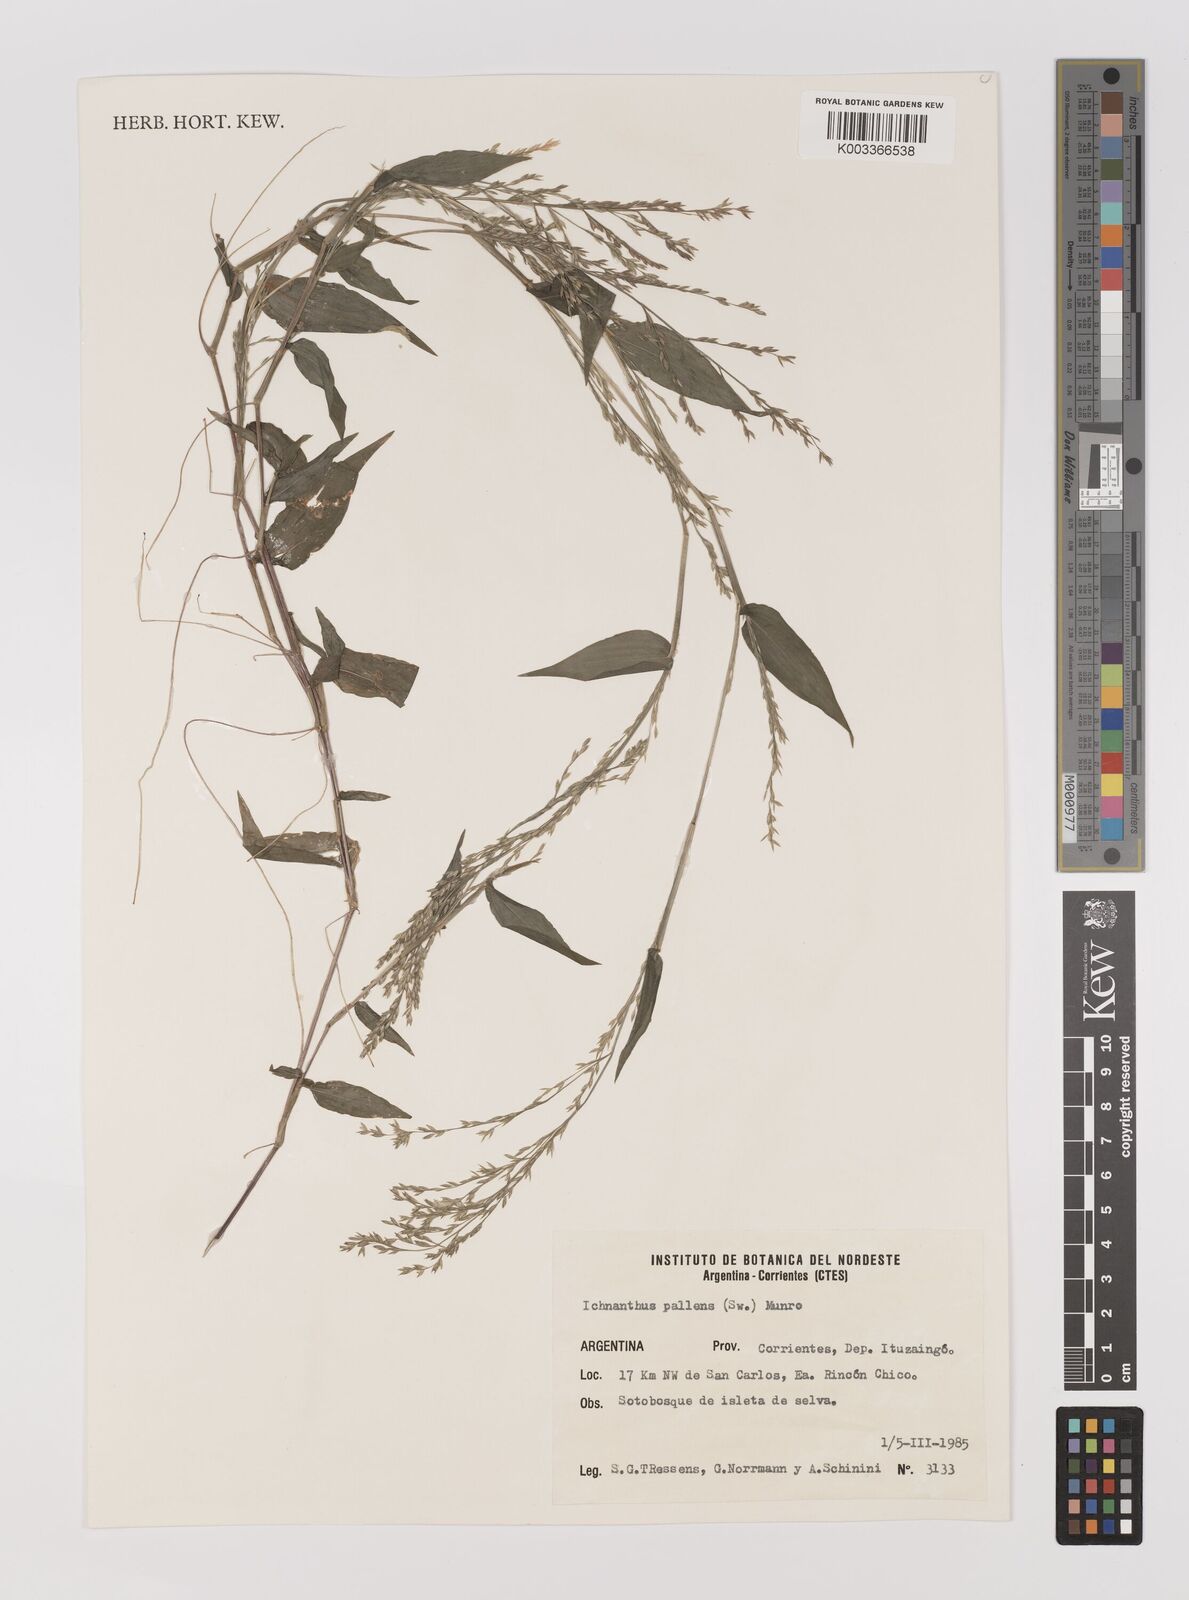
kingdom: Plantae
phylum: Tracheophyta
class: Liliopsida
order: Poales
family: Poaceae
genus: Ichnanthus
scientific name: Ichnanthus pallens
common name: Water grass
